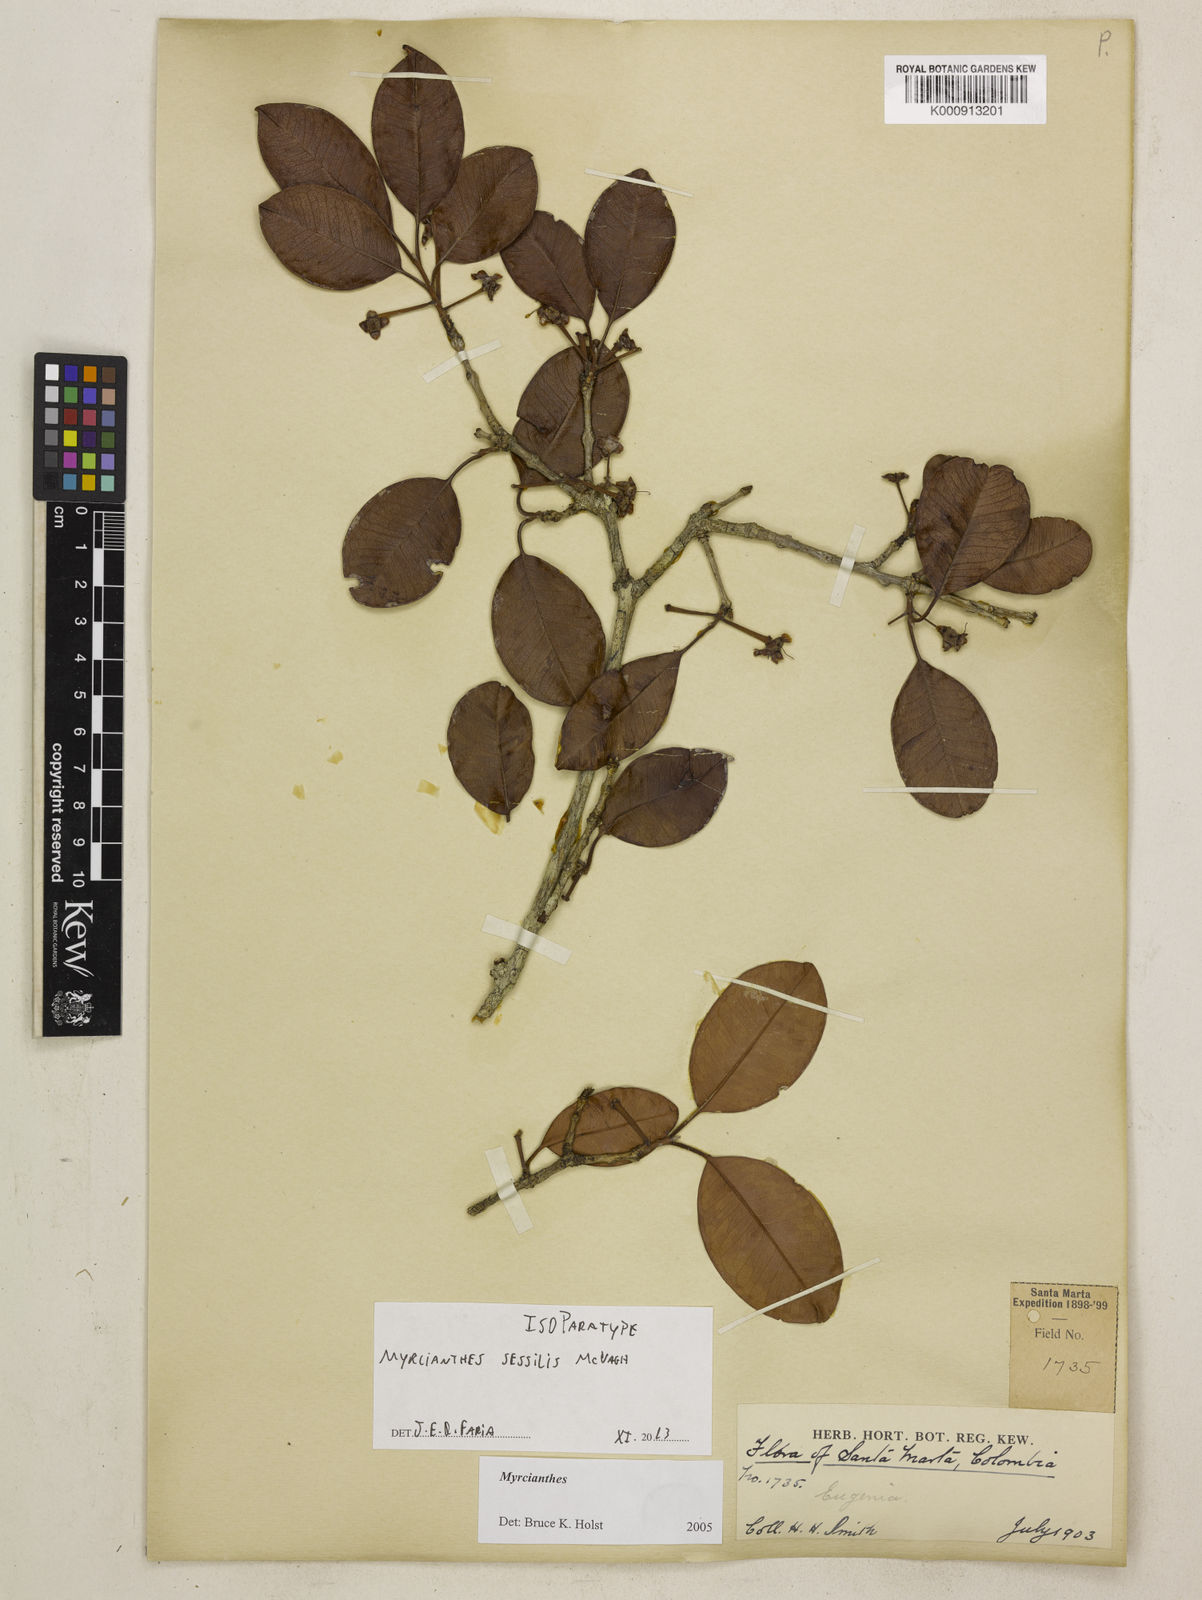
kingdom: Plantae
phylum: Tracheophyta
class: Magnoliopsida
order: Myrtales
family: Myrtaceae
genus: Myrcianthes
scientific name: Myrcianthes sessilis
